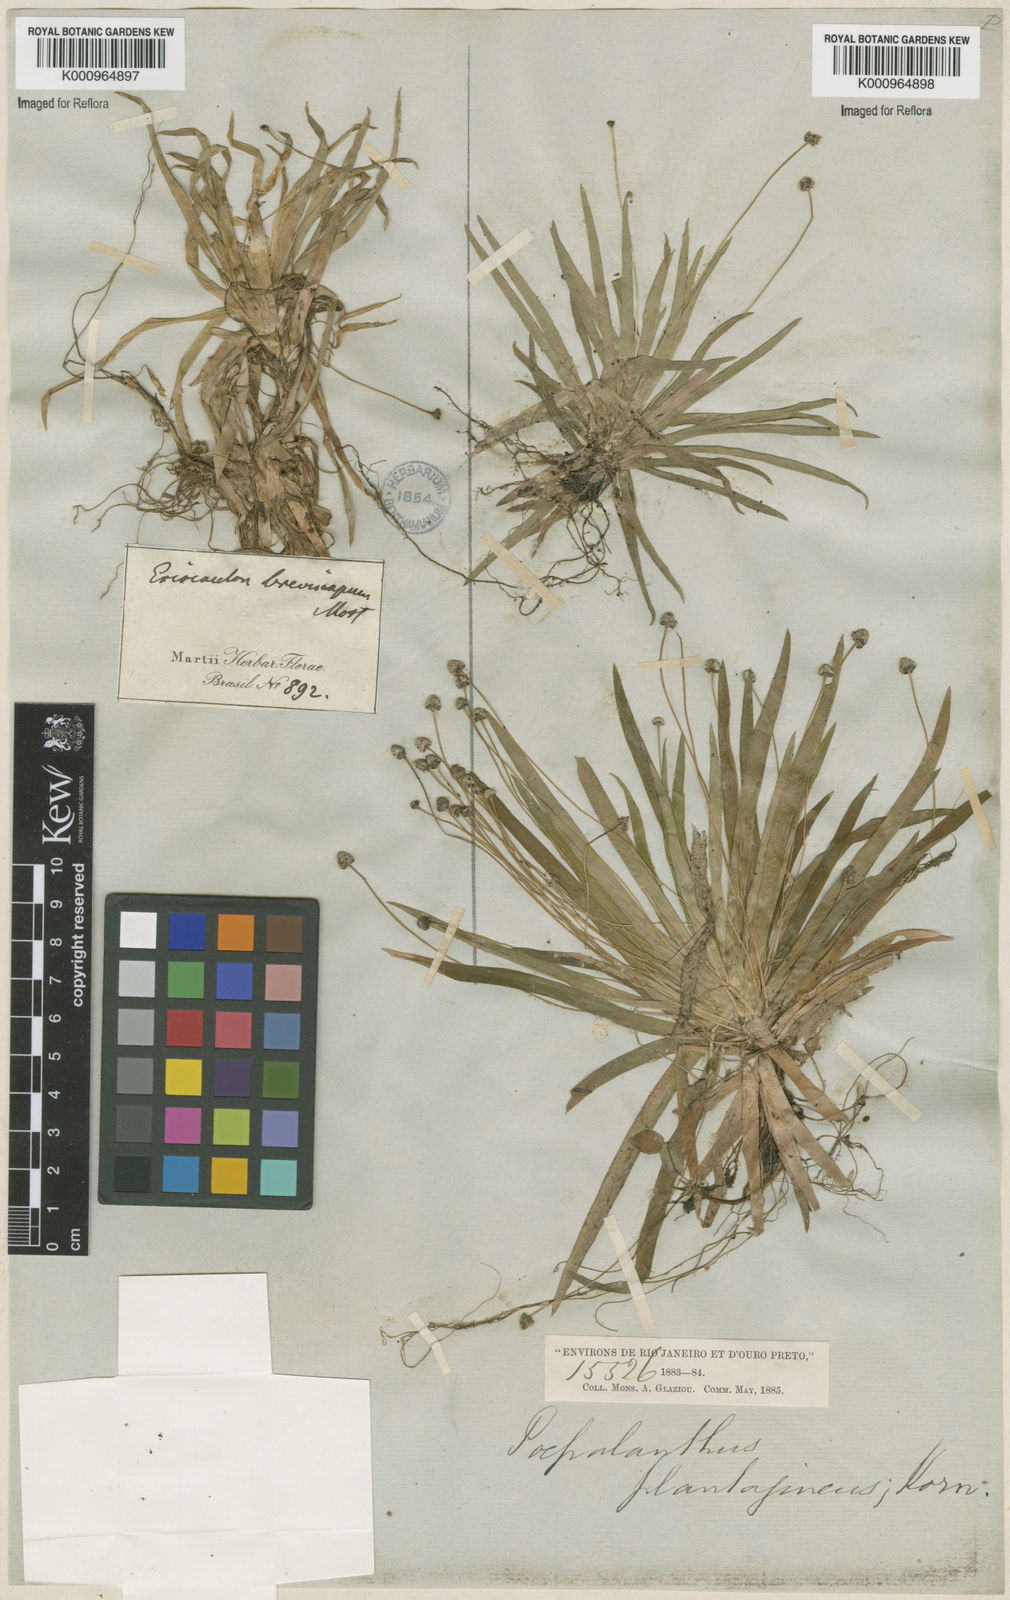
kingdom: Plantae
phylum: Tracheophyta
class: Liliopsida
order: Poales
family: Eriocaulaceae
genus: Paepalanthus
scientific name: Paepalanthus
